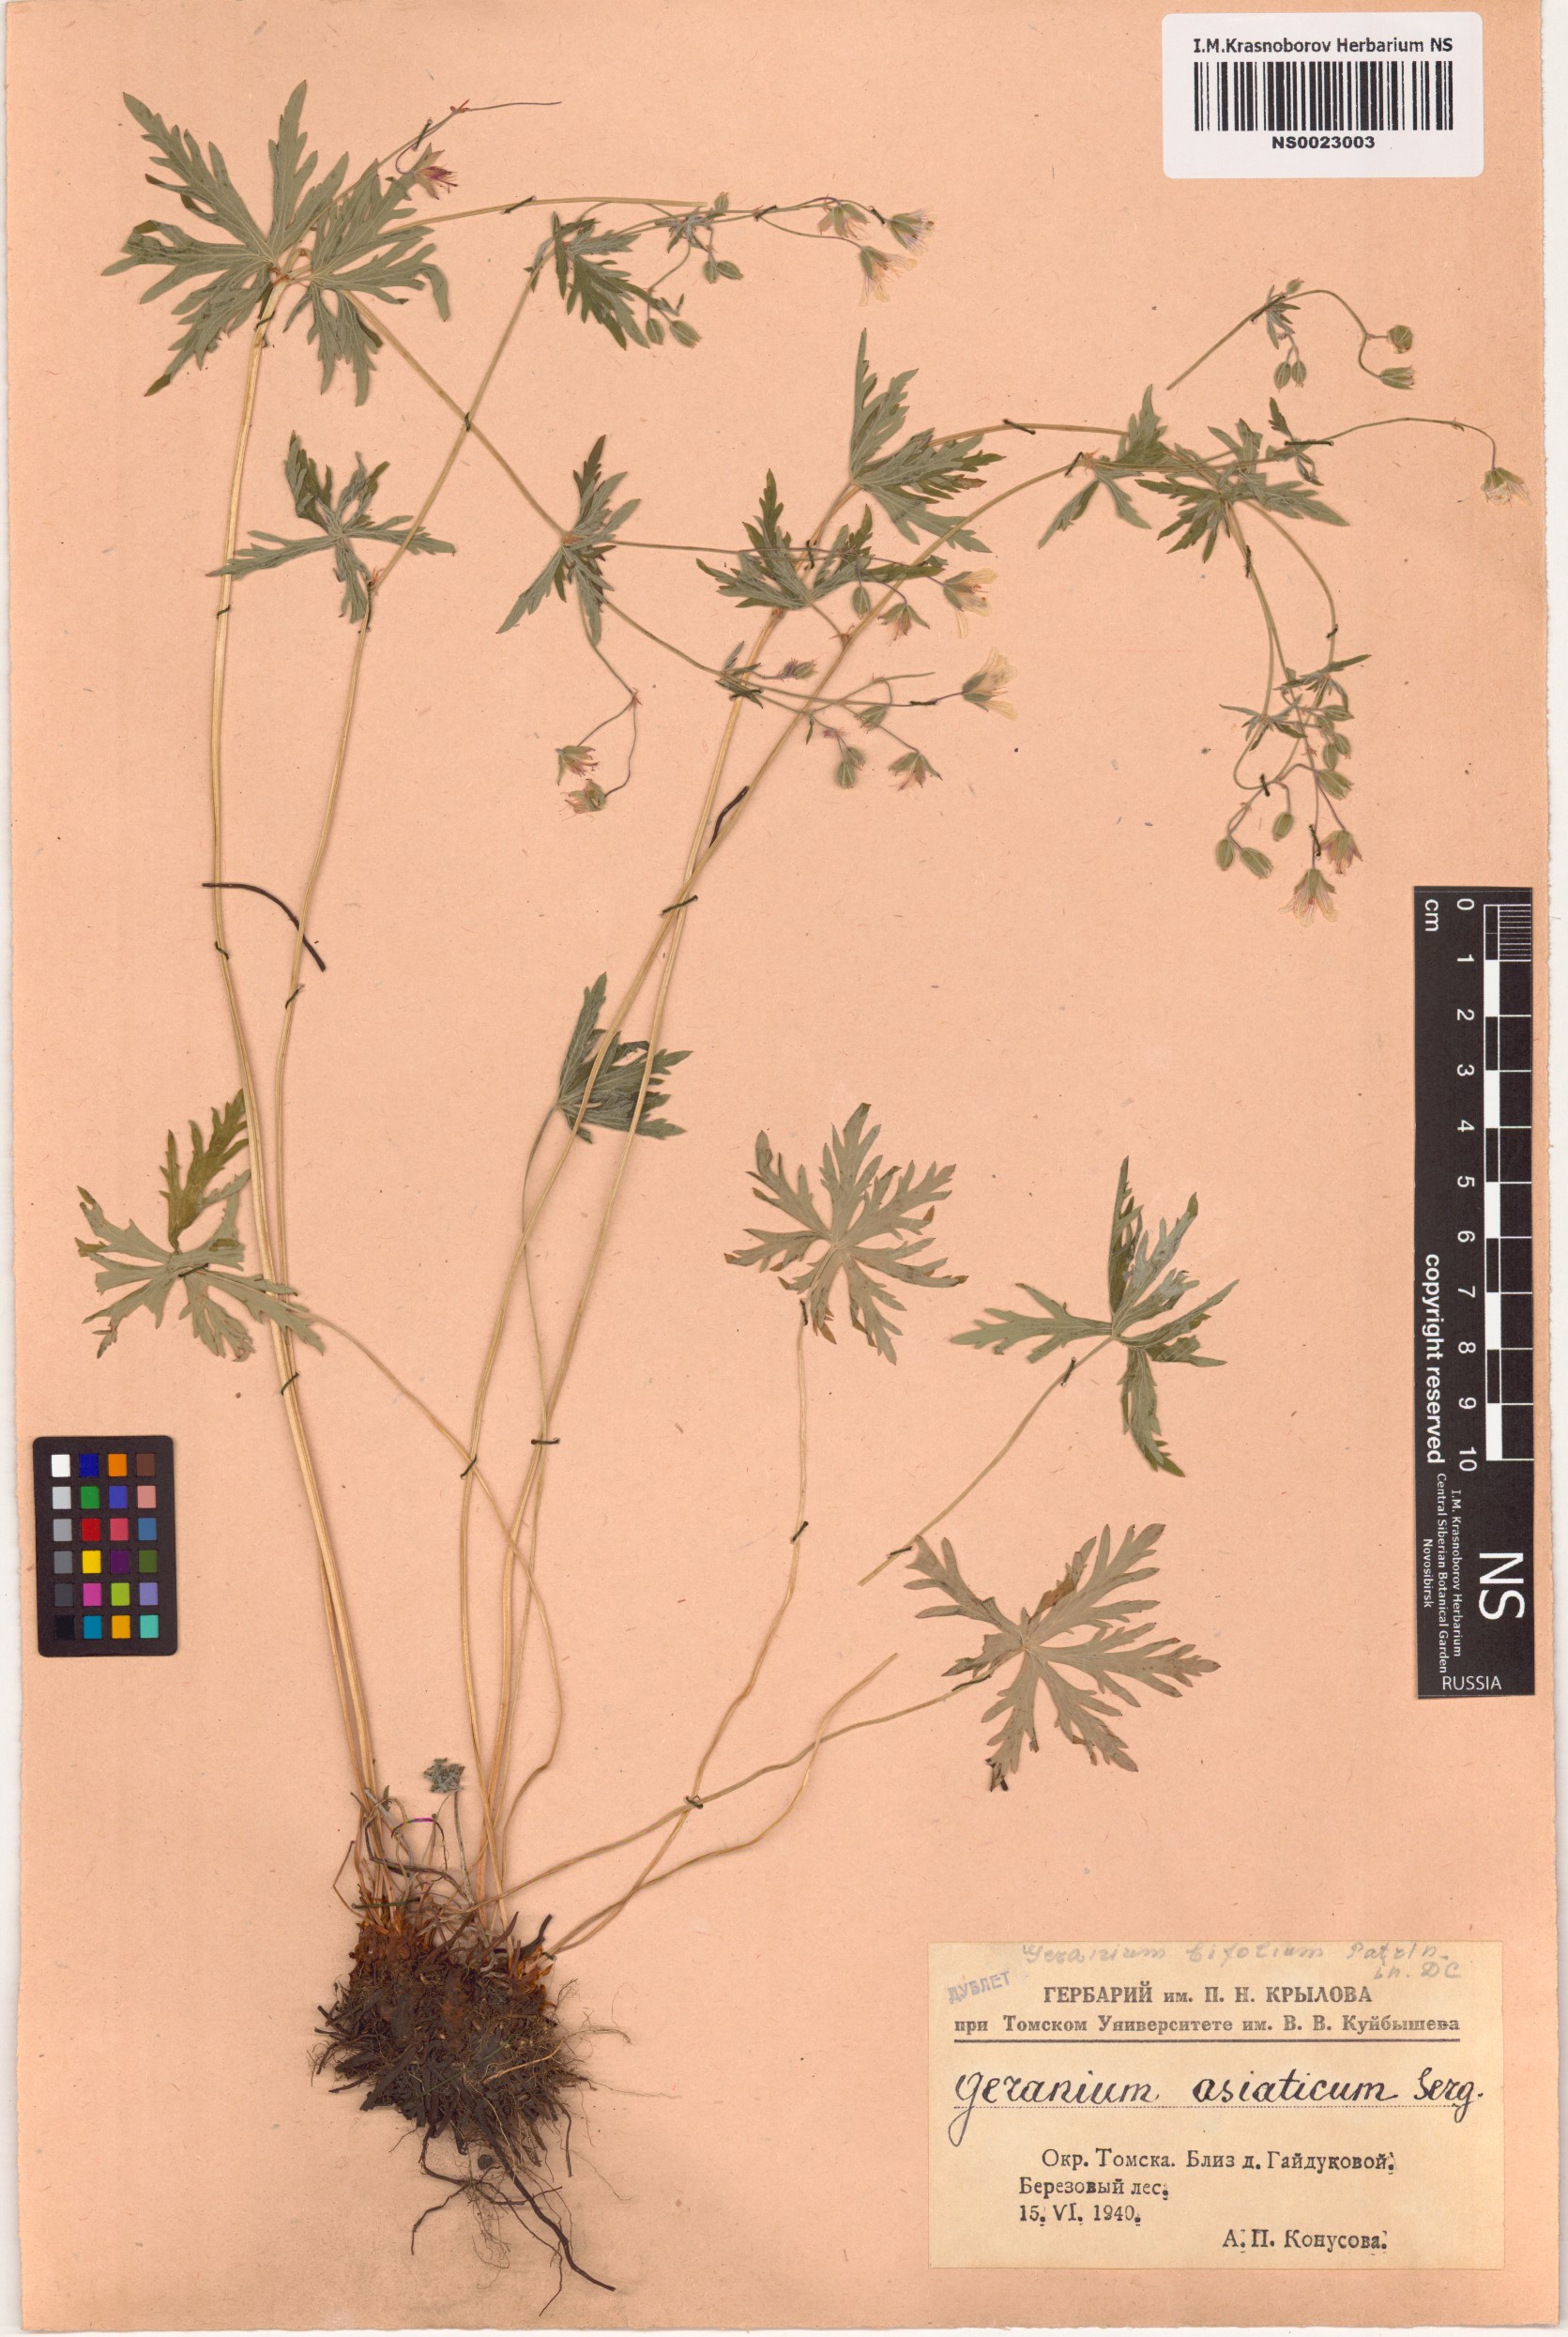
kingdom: Plantae
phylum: Tracheophyta
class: Magnoliopsida
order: Geraniales
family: Geraniaceae
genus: Geranium
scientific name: Geranium pseudosibiricum
